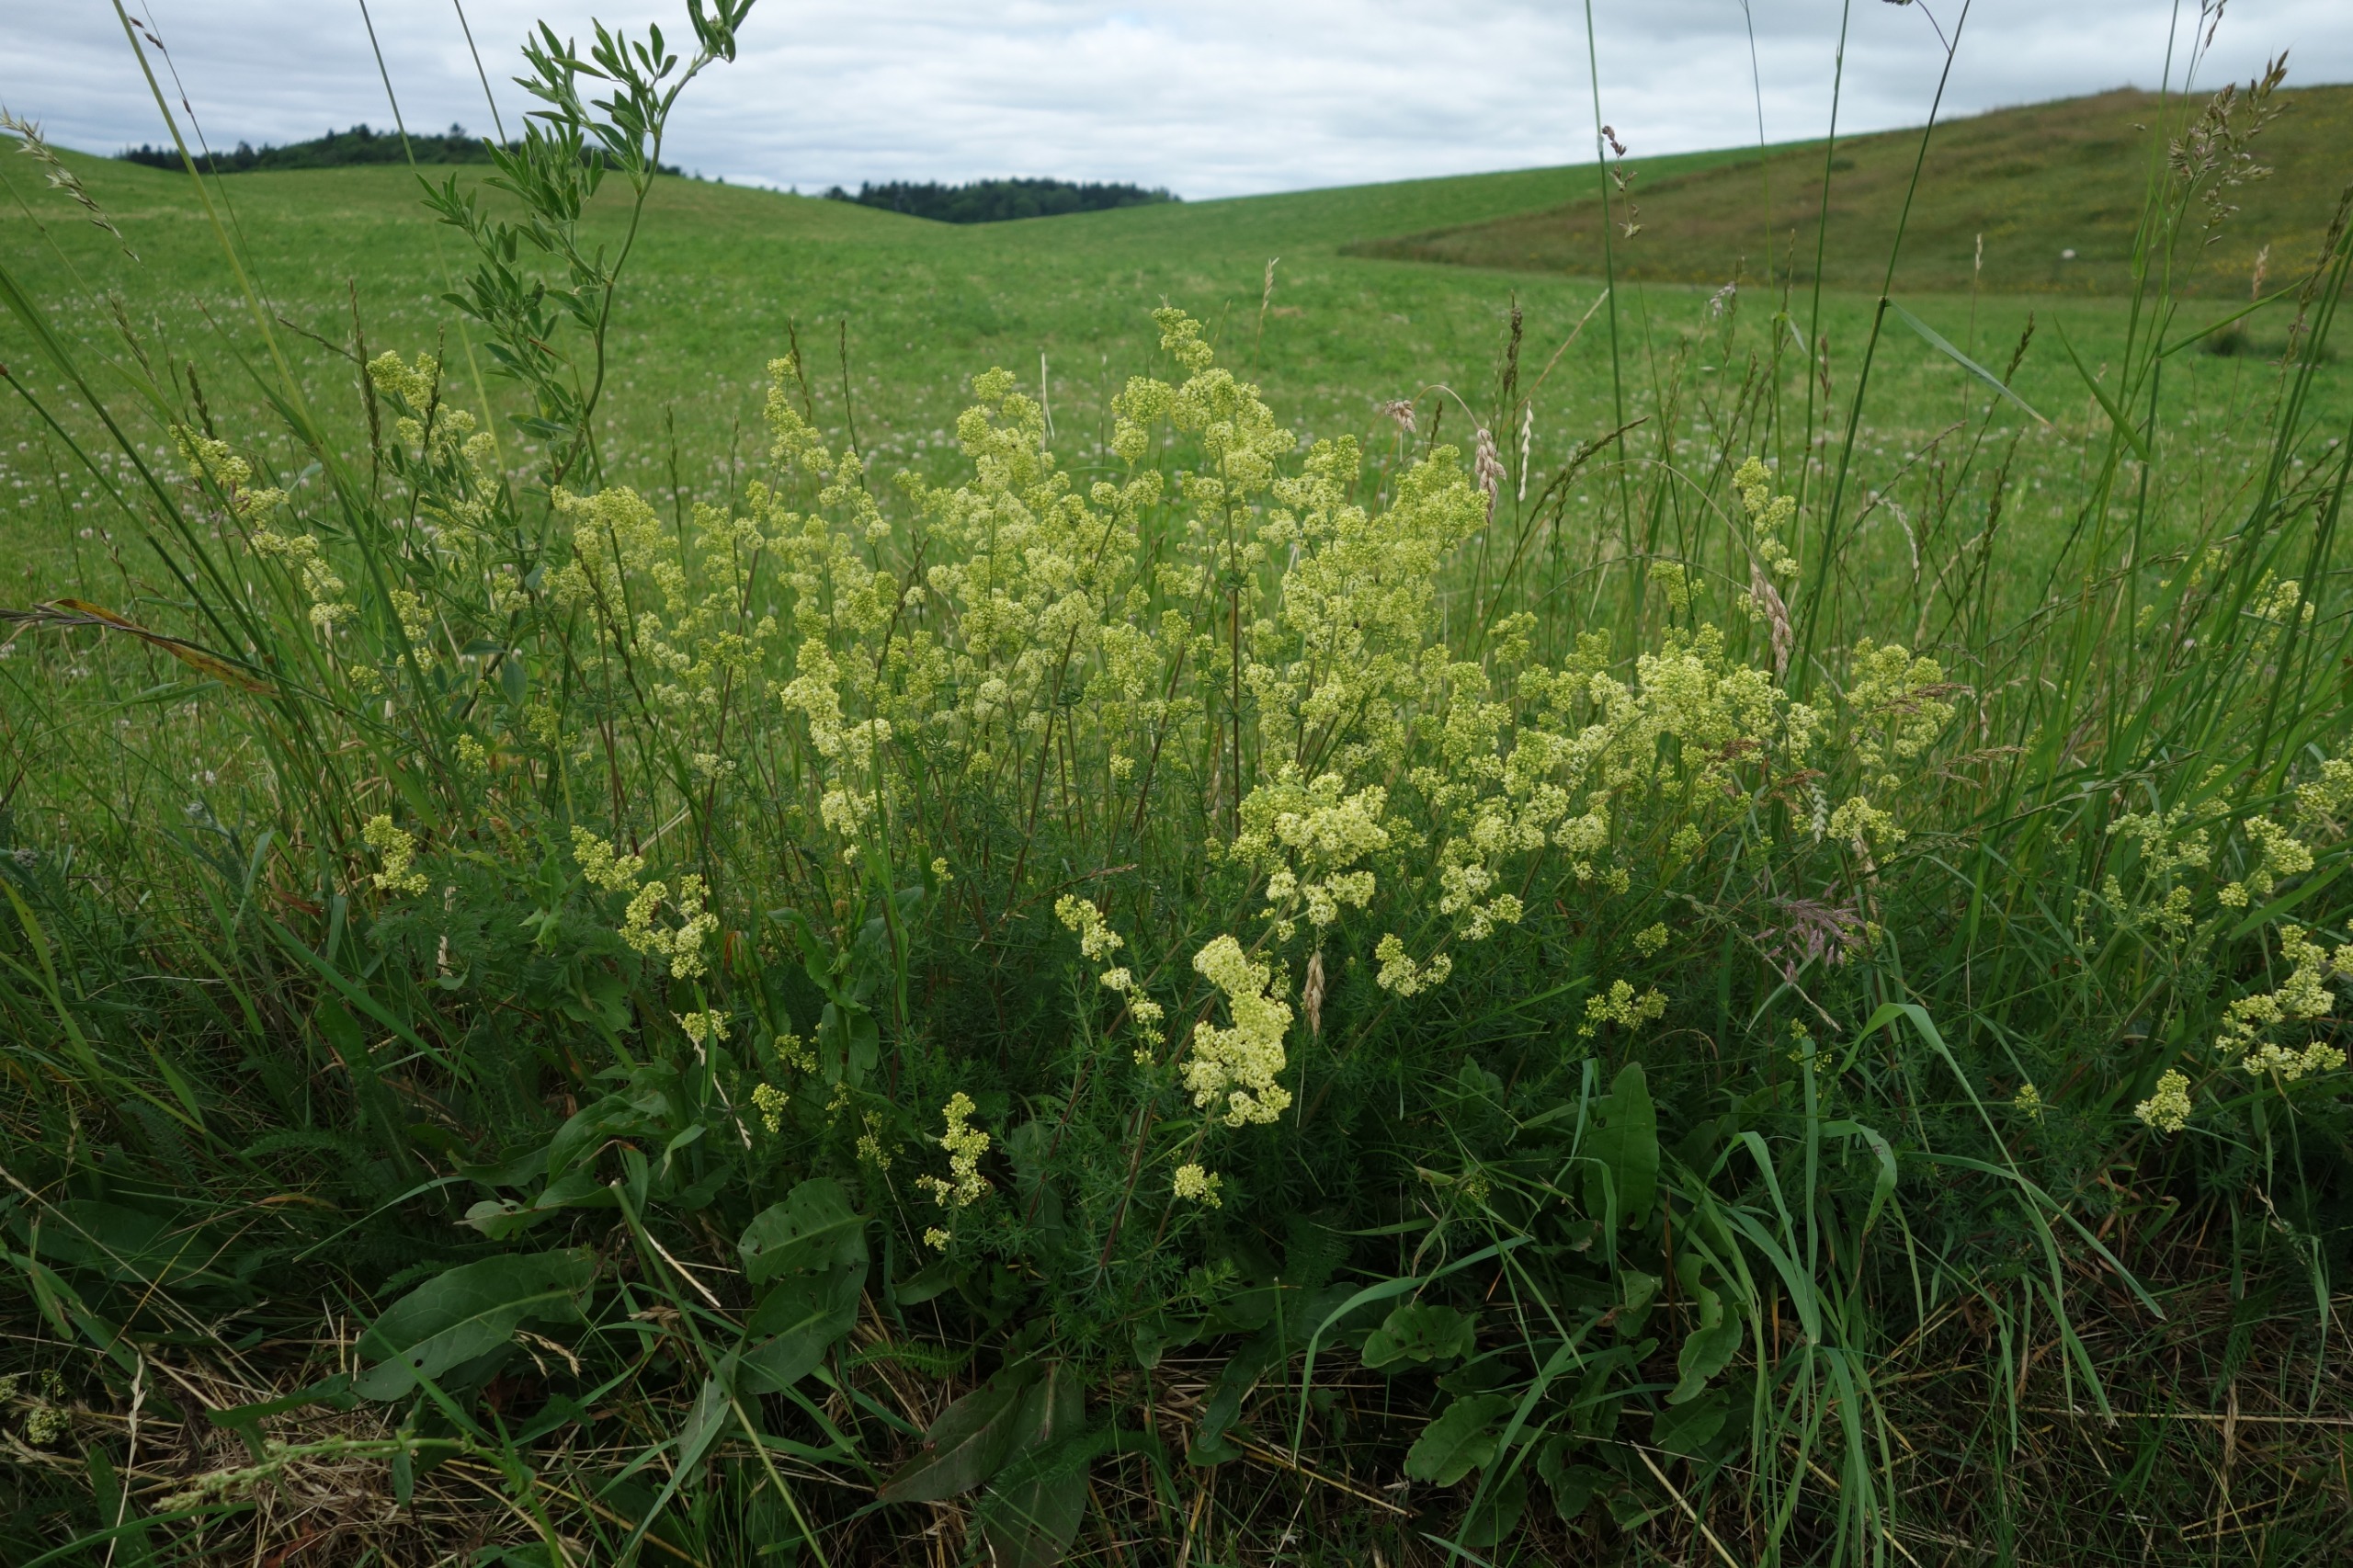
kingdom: Plantae
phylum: Tracheophyta
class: Magnoliopsida
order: Gentianales
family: Rubiaceae
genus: Galium
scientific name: Galium
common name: Hvidgul snerre
